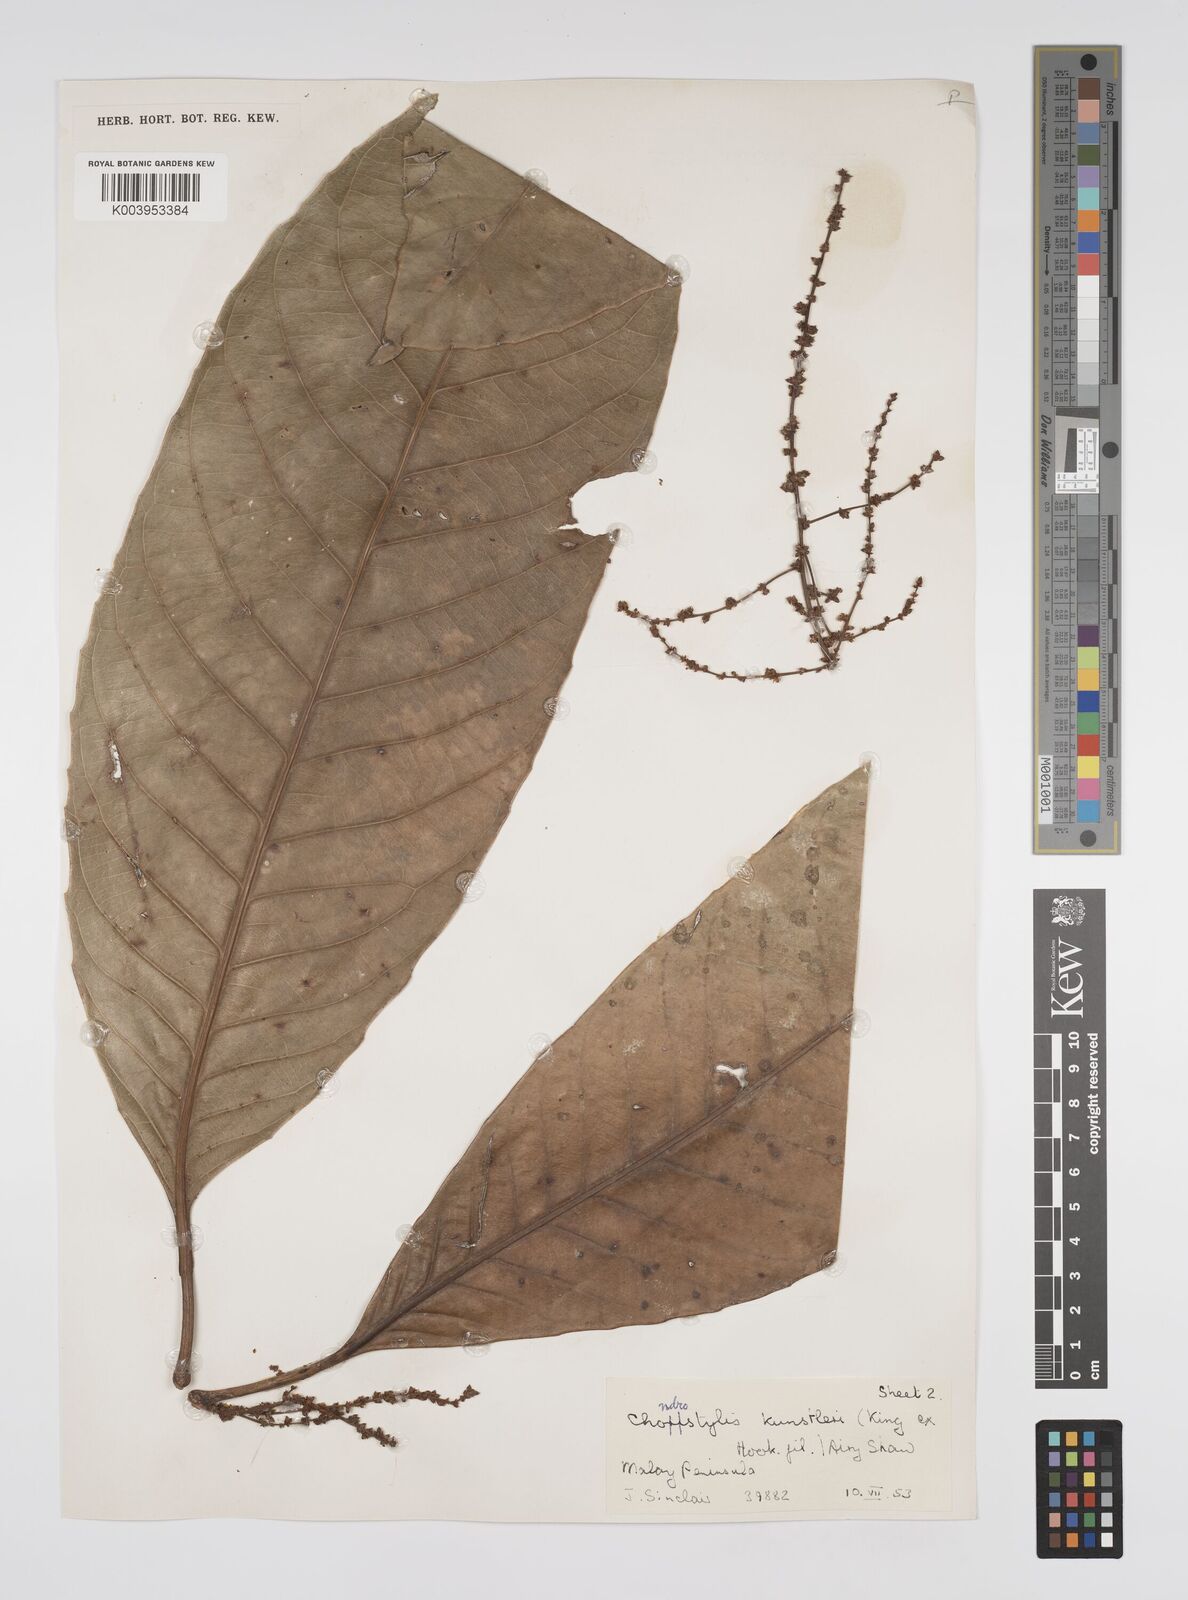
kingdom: Plantae
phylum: Tracheophyta
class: Magnoliopsida
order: Malpighiales
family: Euphorbiaceae
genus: Chondrostylis
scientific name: Chondrostylis kunstleri
